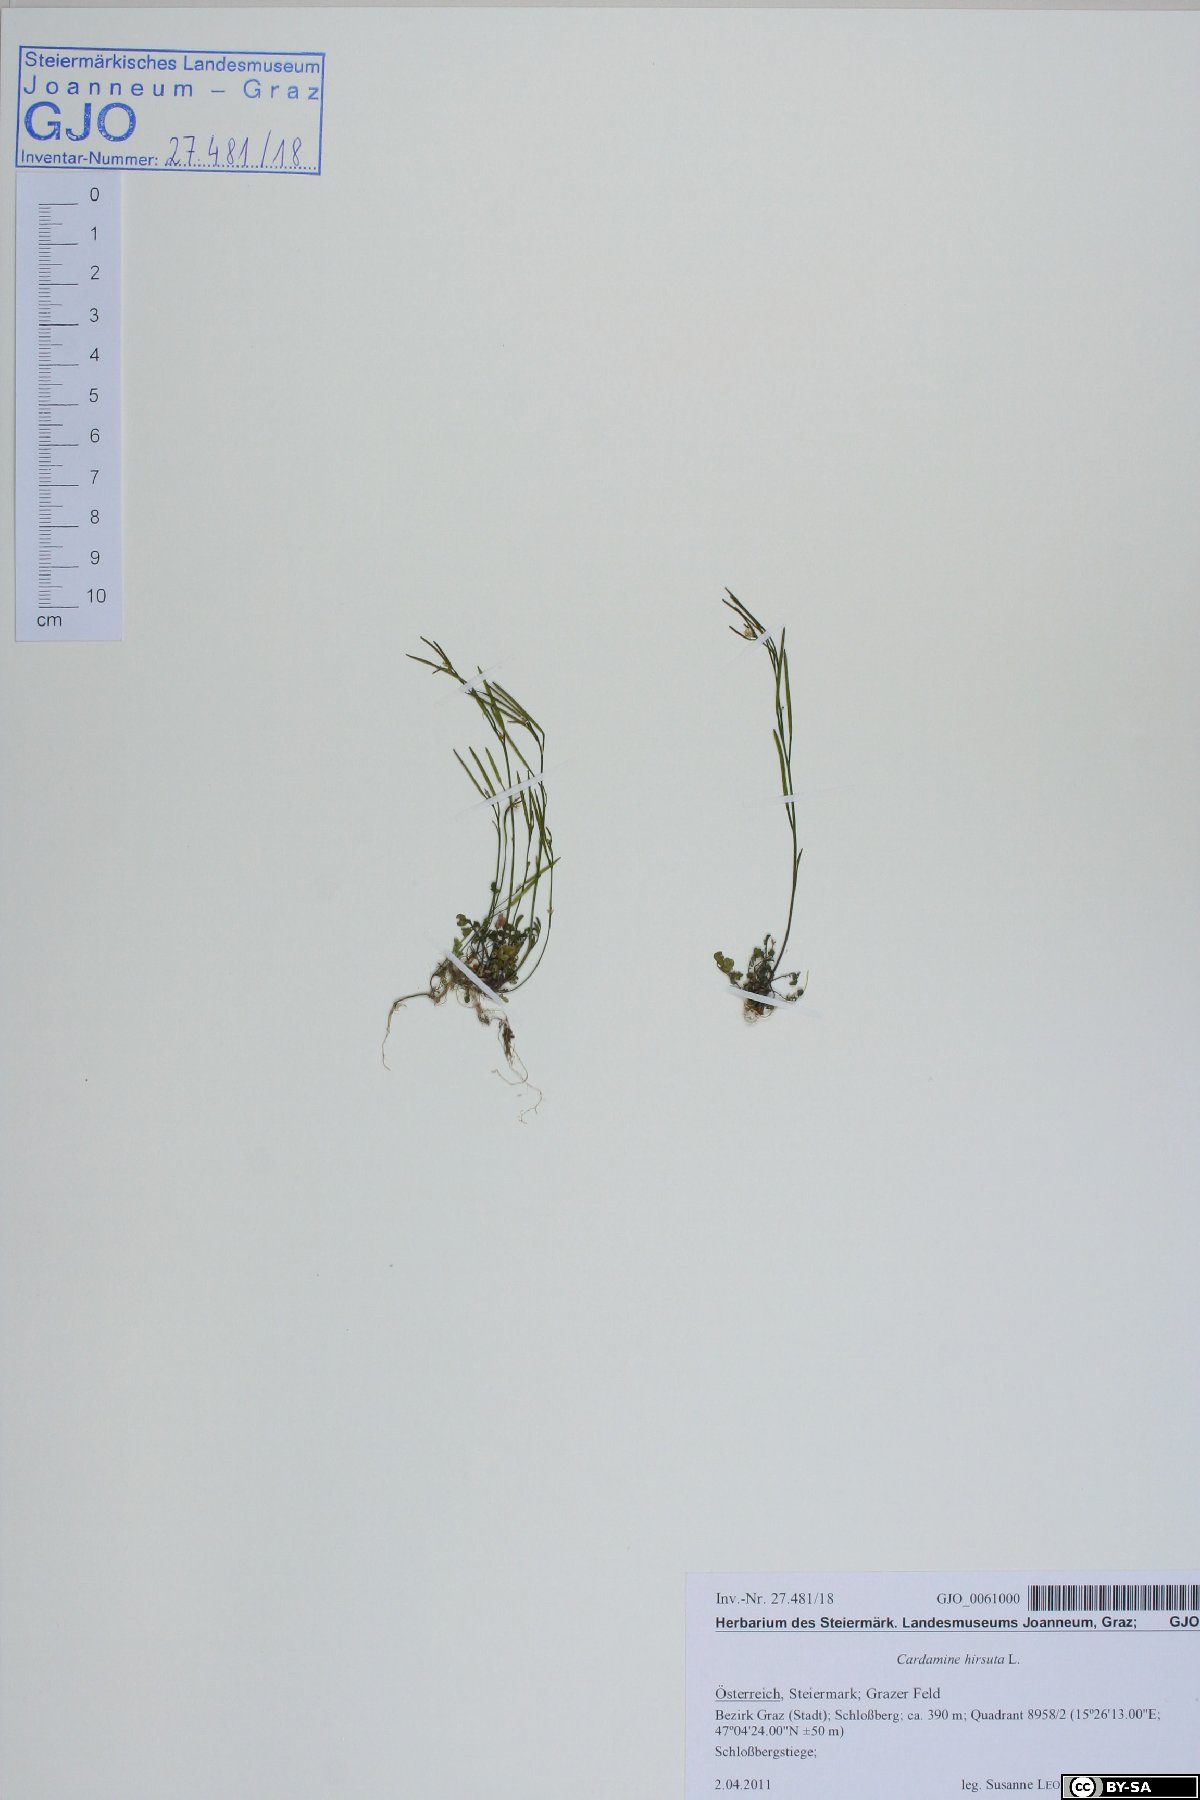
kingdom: Plantae
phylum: Tracheophyta
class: Magnoliopsida
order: Brassicales
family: Brassicaceae
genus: Cardamine
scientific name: Cardamine hirsuta
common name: Hairy bittercress
